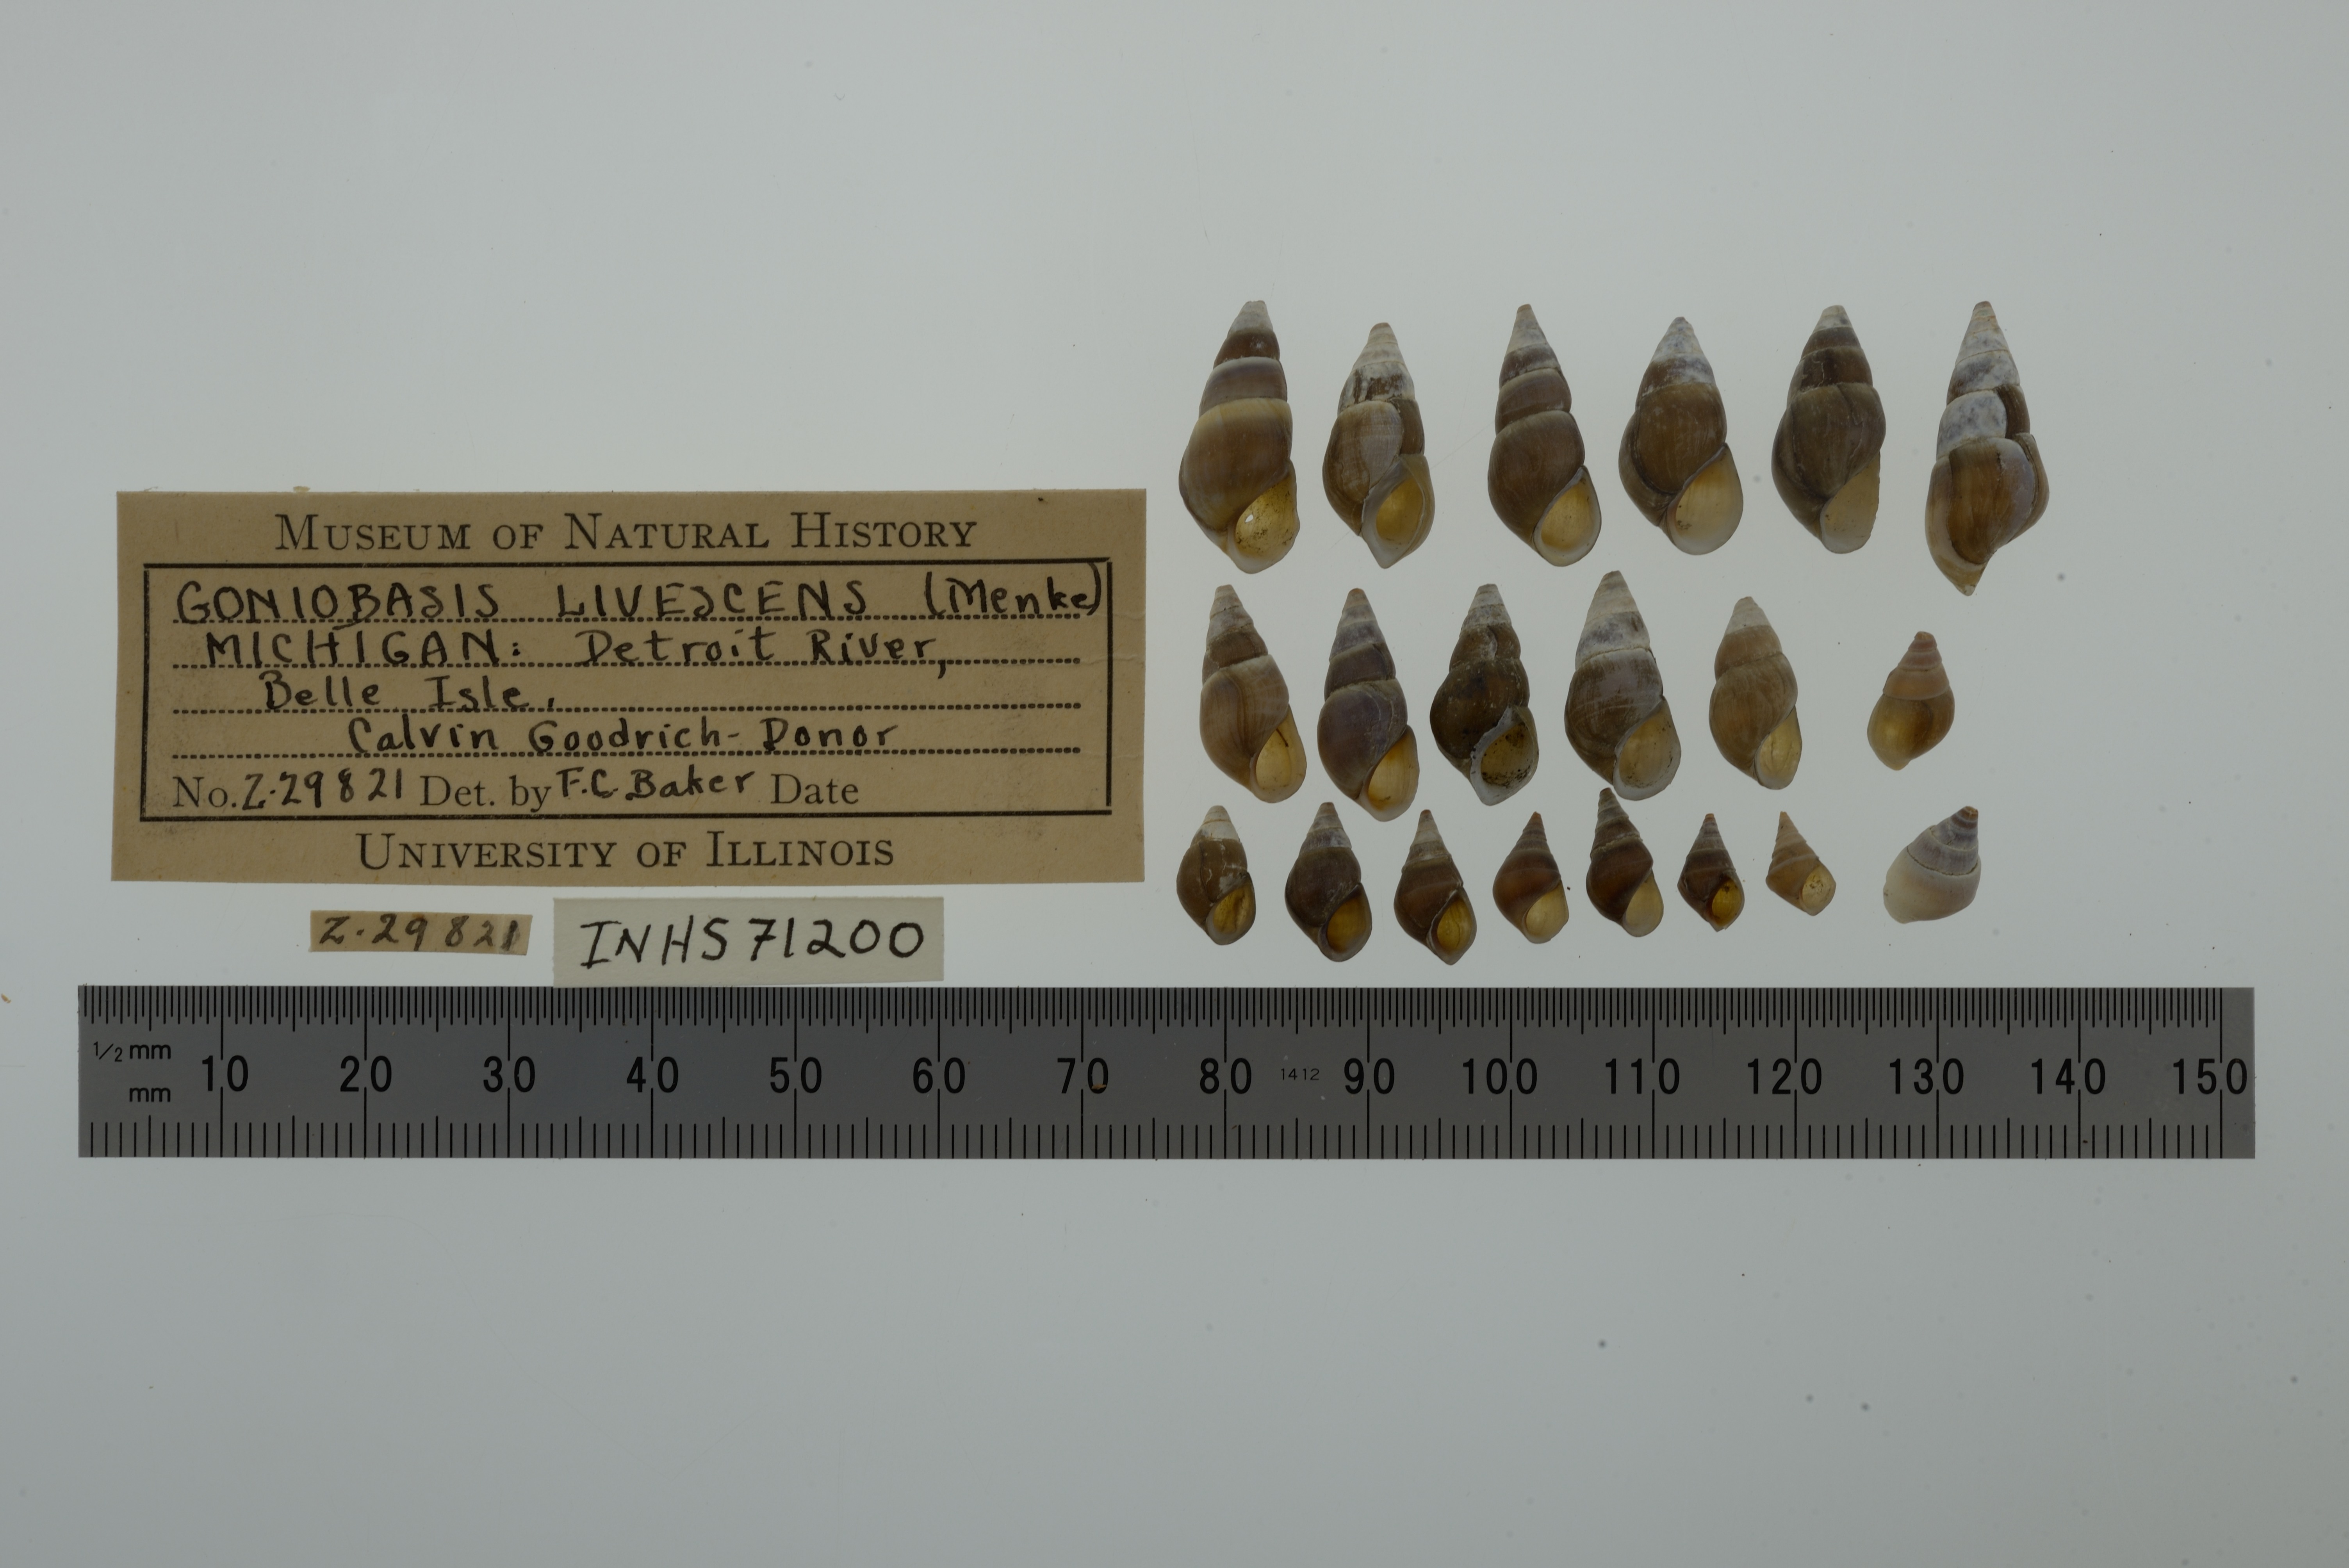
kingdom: Animalia
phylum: Mollusca
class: Gastropoda
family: Pleuroceridae
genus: Elimia
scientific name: Elimia livescens
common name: Liver elimia
